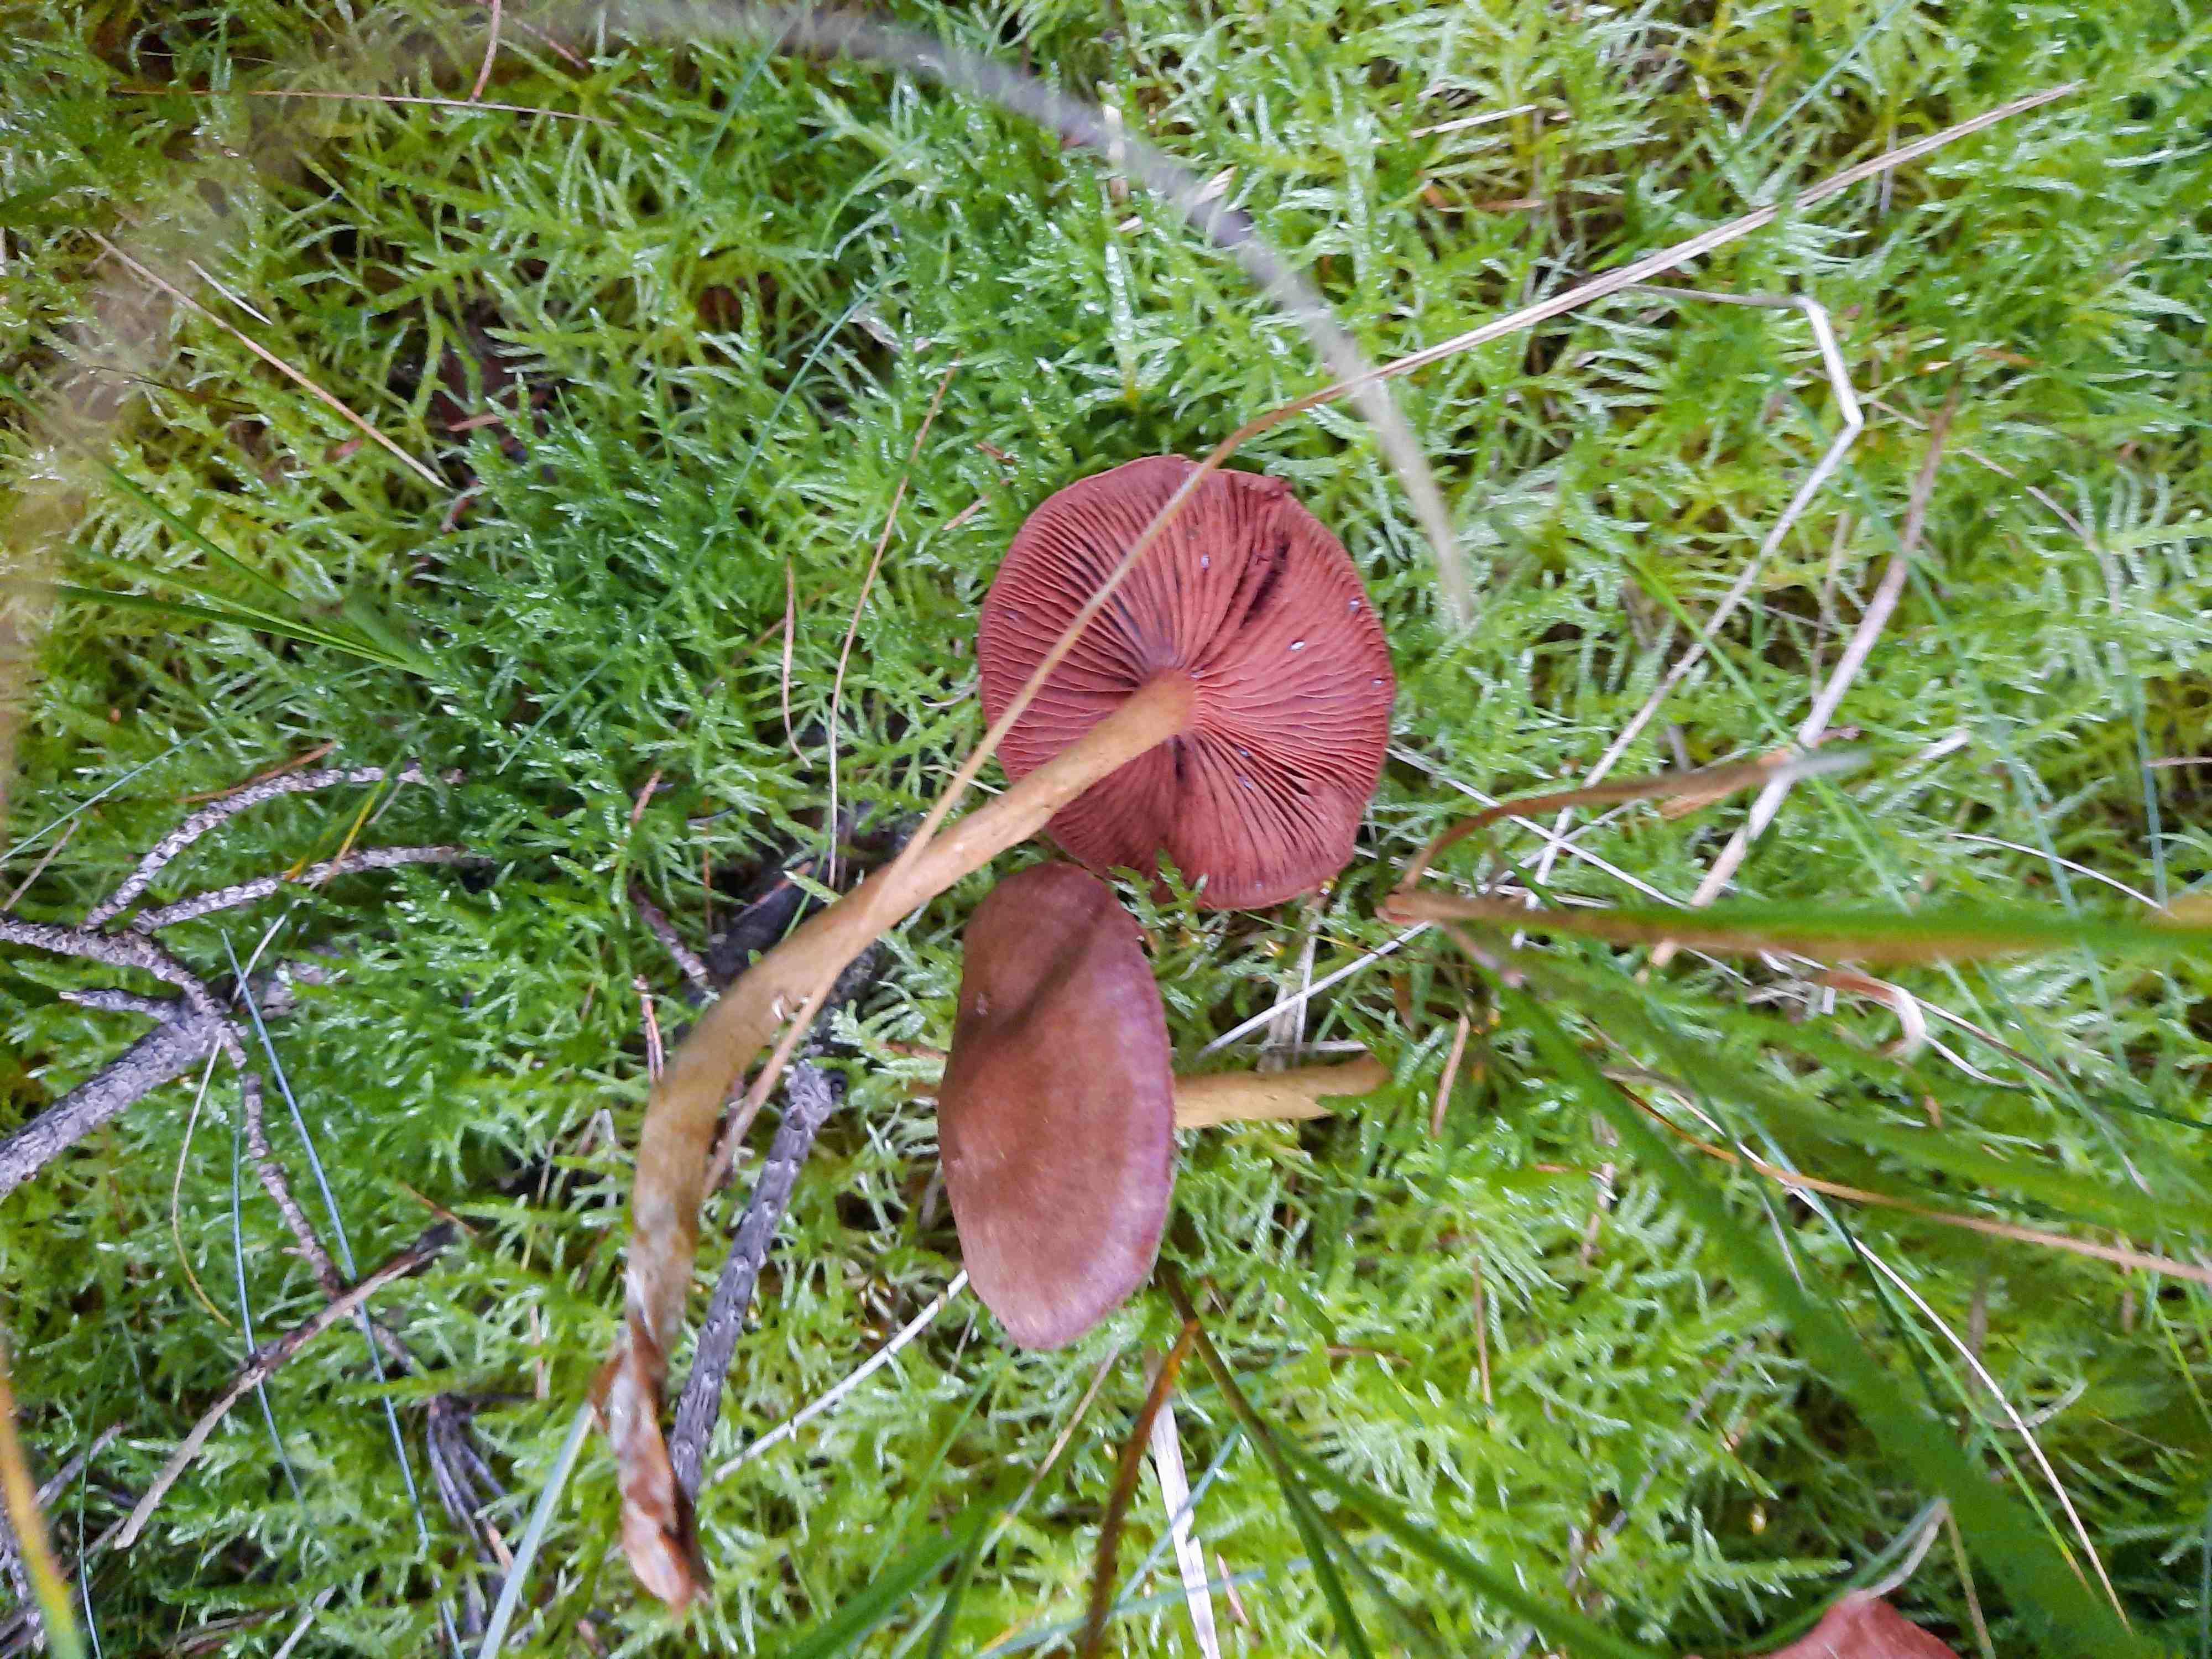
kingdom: Fungi
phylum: Basidiomycota
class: Agaricomycetes
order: Agaricales
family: Cortinariaceae
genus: Cortinarius
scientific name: Cortinarius
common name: cinnoberbladet slørhat
